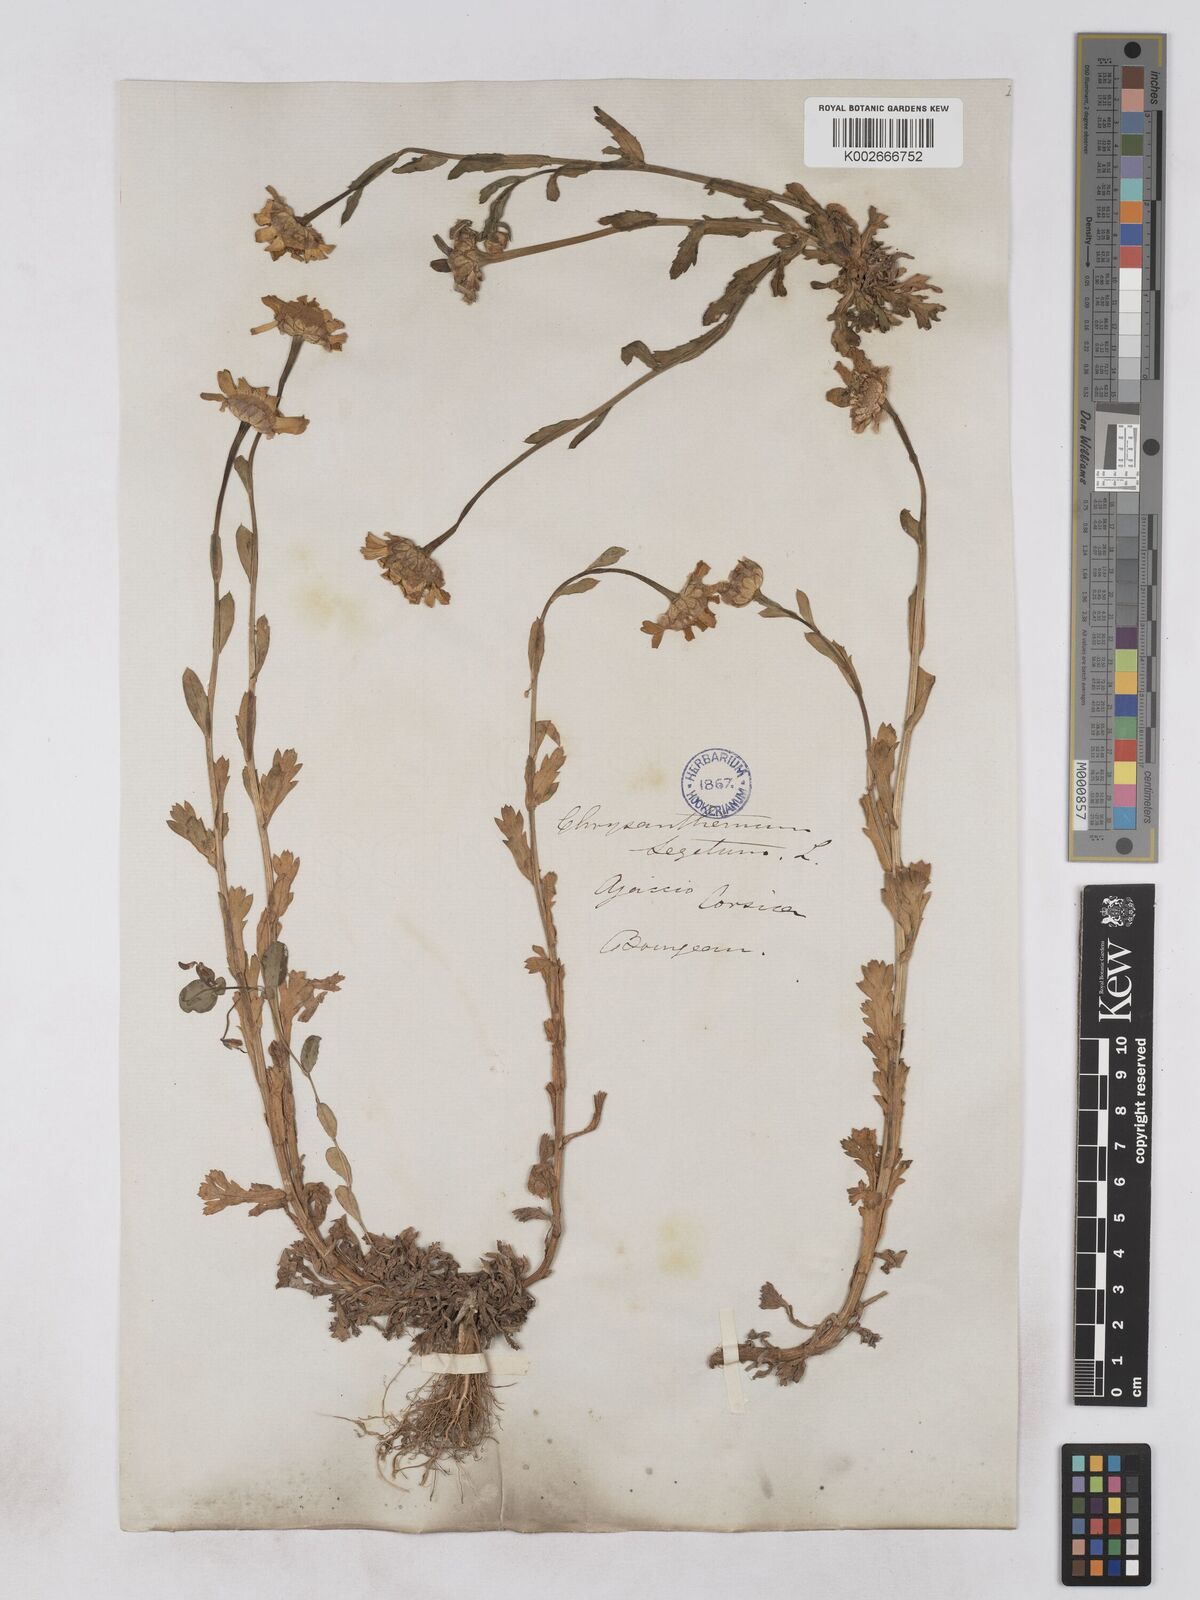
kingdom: Plantae
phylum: Tracheophyta
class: Magnoliopsida
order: Asterales
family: Asteraceae
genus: Glebionis
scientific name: Glebionis segetum
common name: Corndaisy
